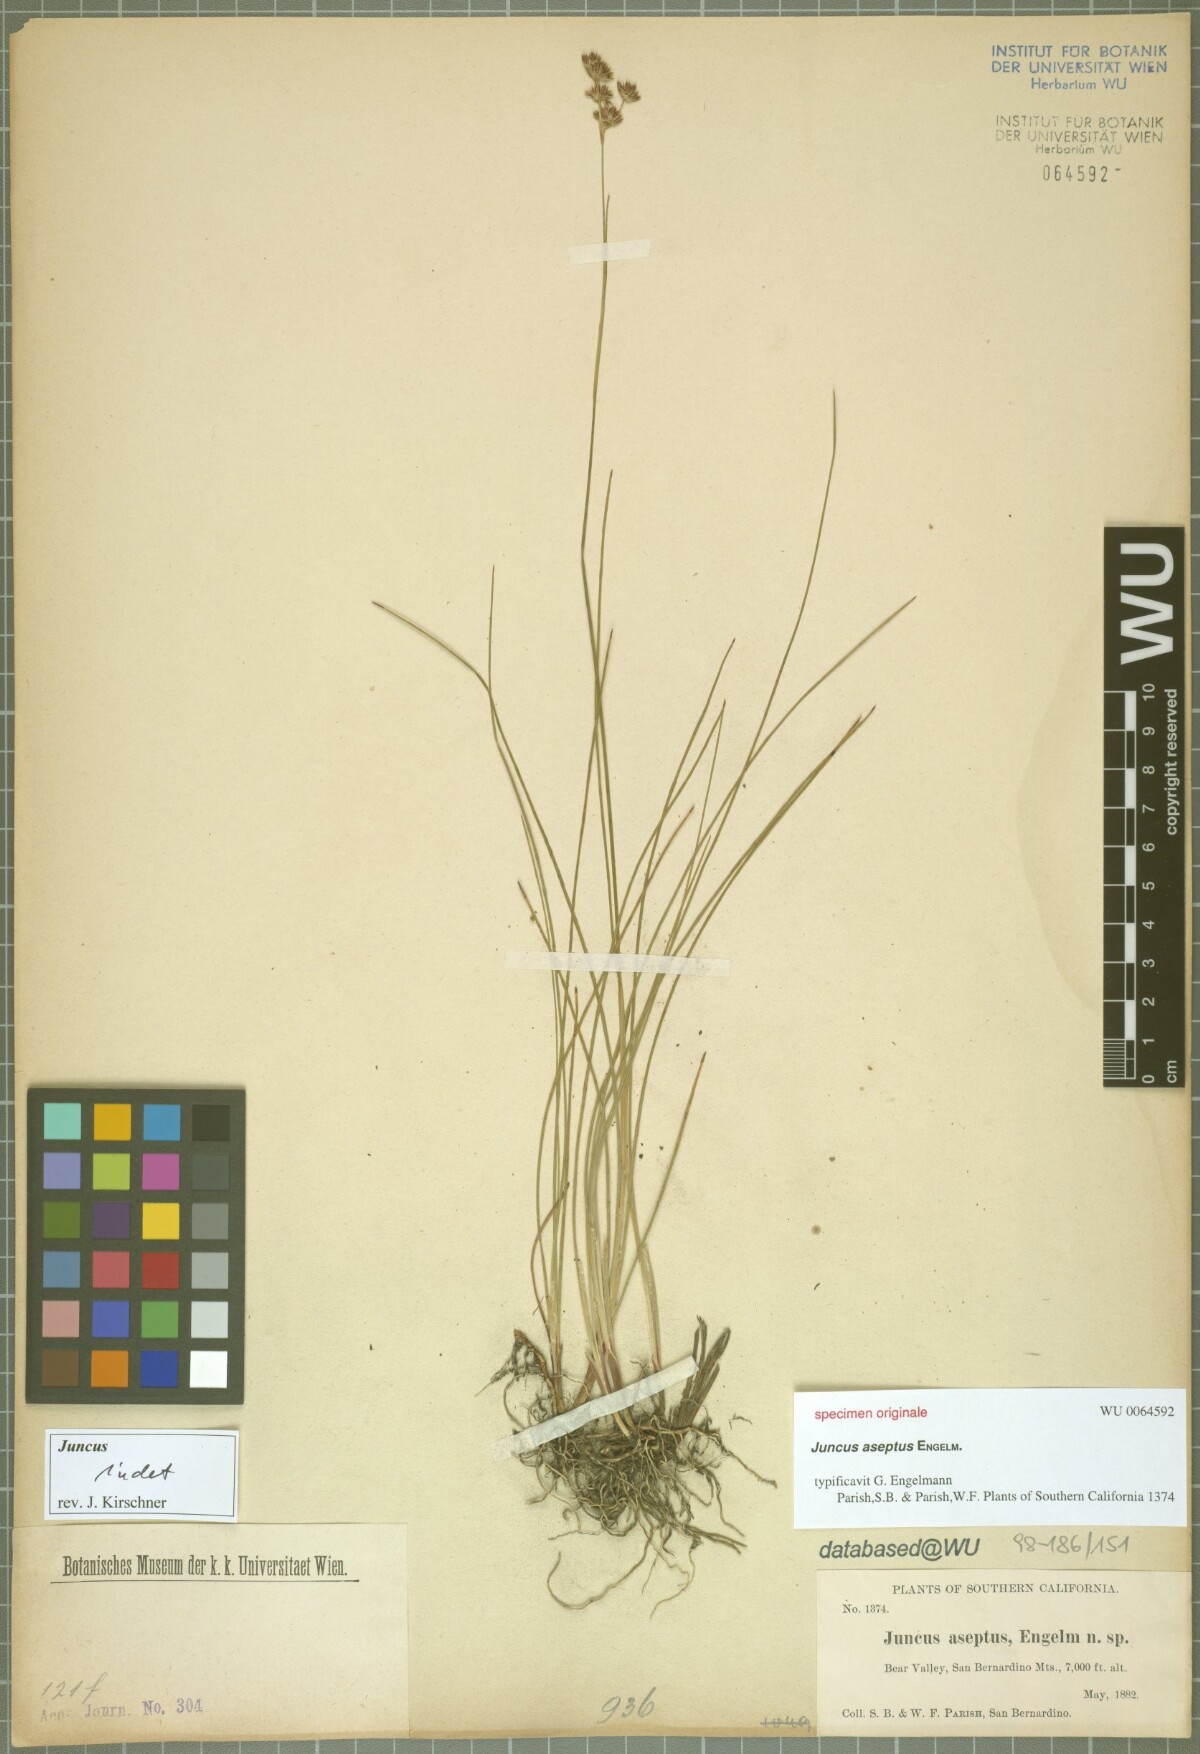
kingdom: Plantae
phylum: Tracheophyta
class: Liliopsida
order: Poales
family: Juncaceae
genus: Juncus
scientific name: Juncus
